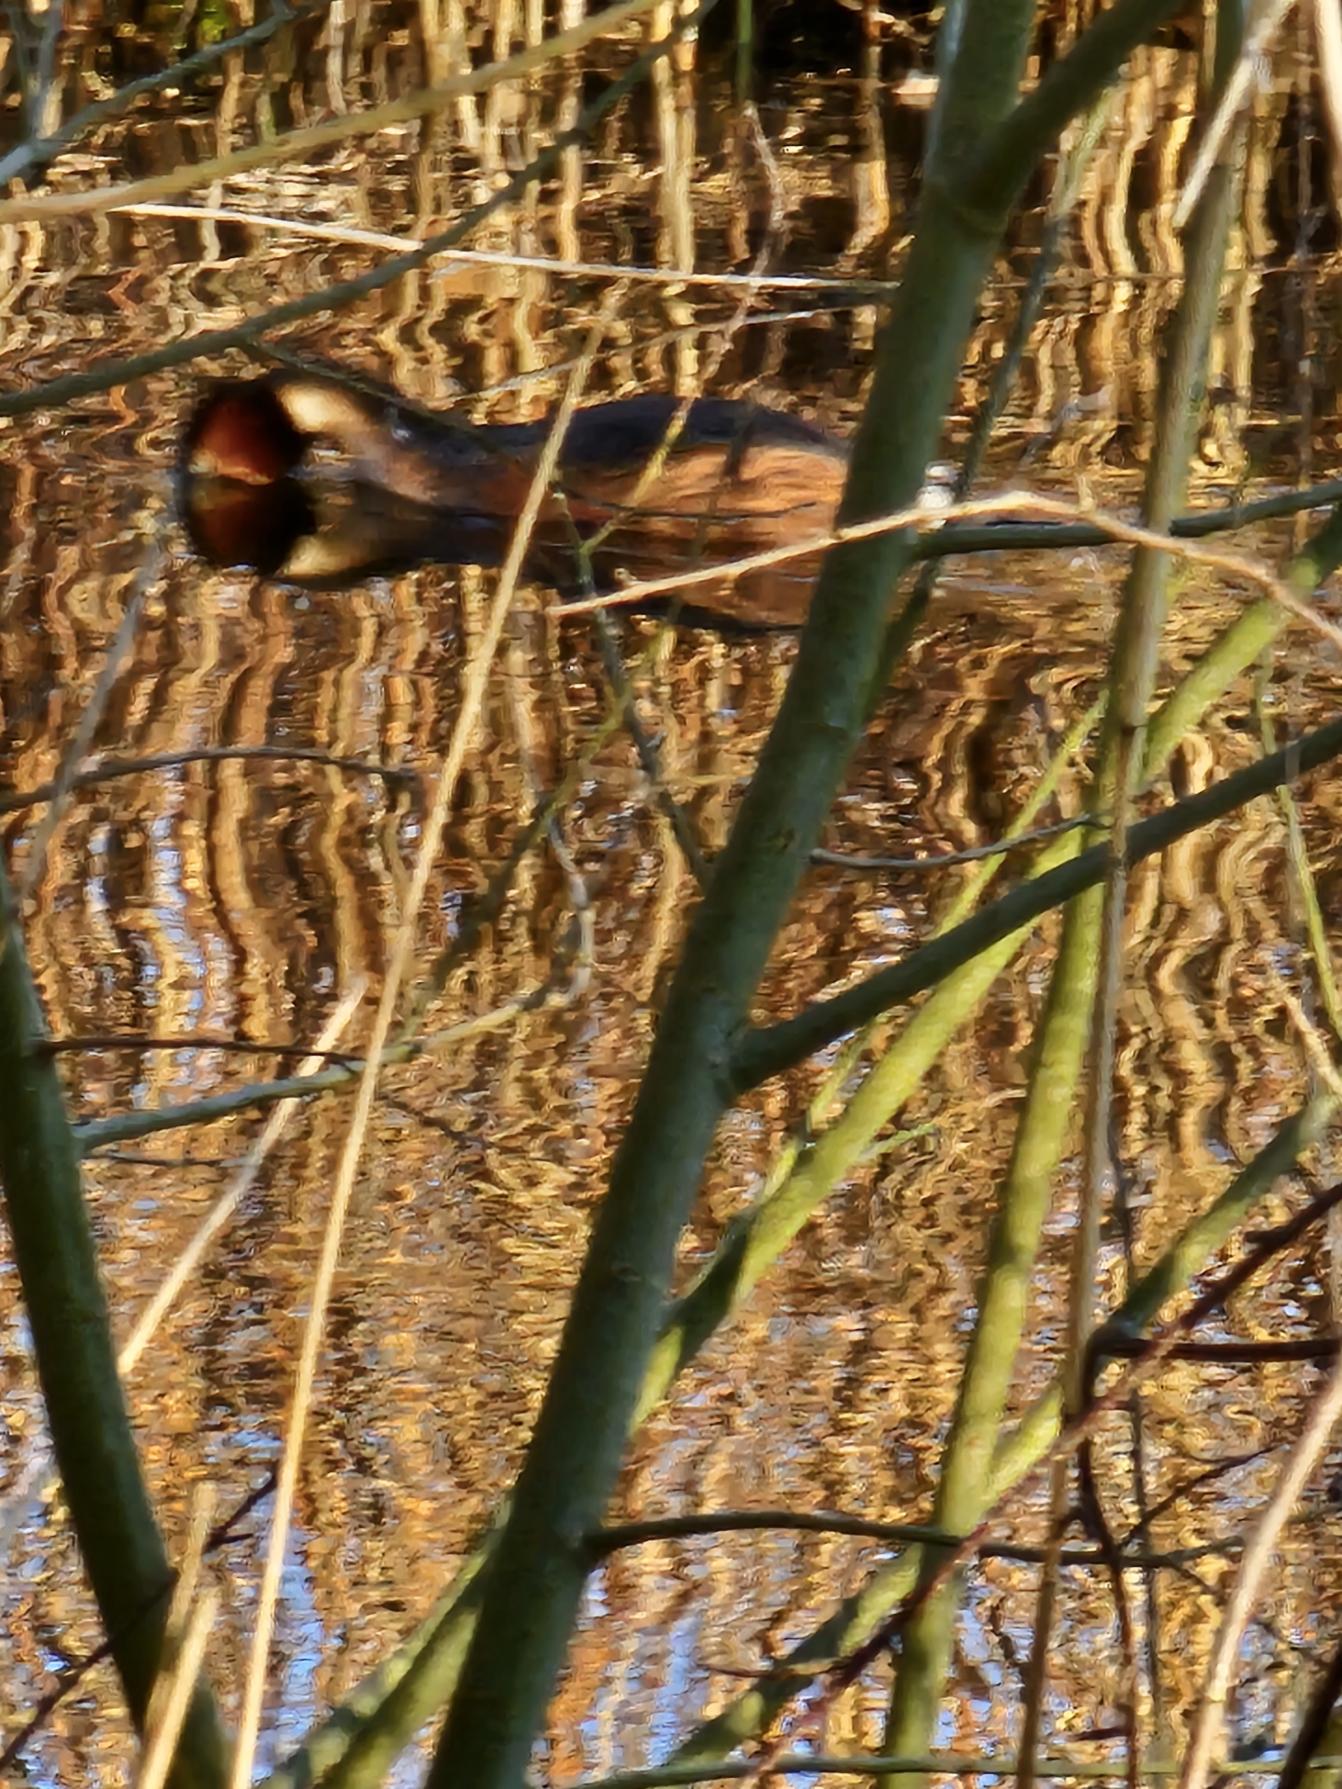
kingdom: Animalia
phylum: Chordata
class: Aves
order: Podicipediformes
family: Podicipedidae
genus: Podiceps
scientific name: Podiceps cristatus
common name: Toppet lappedykker
